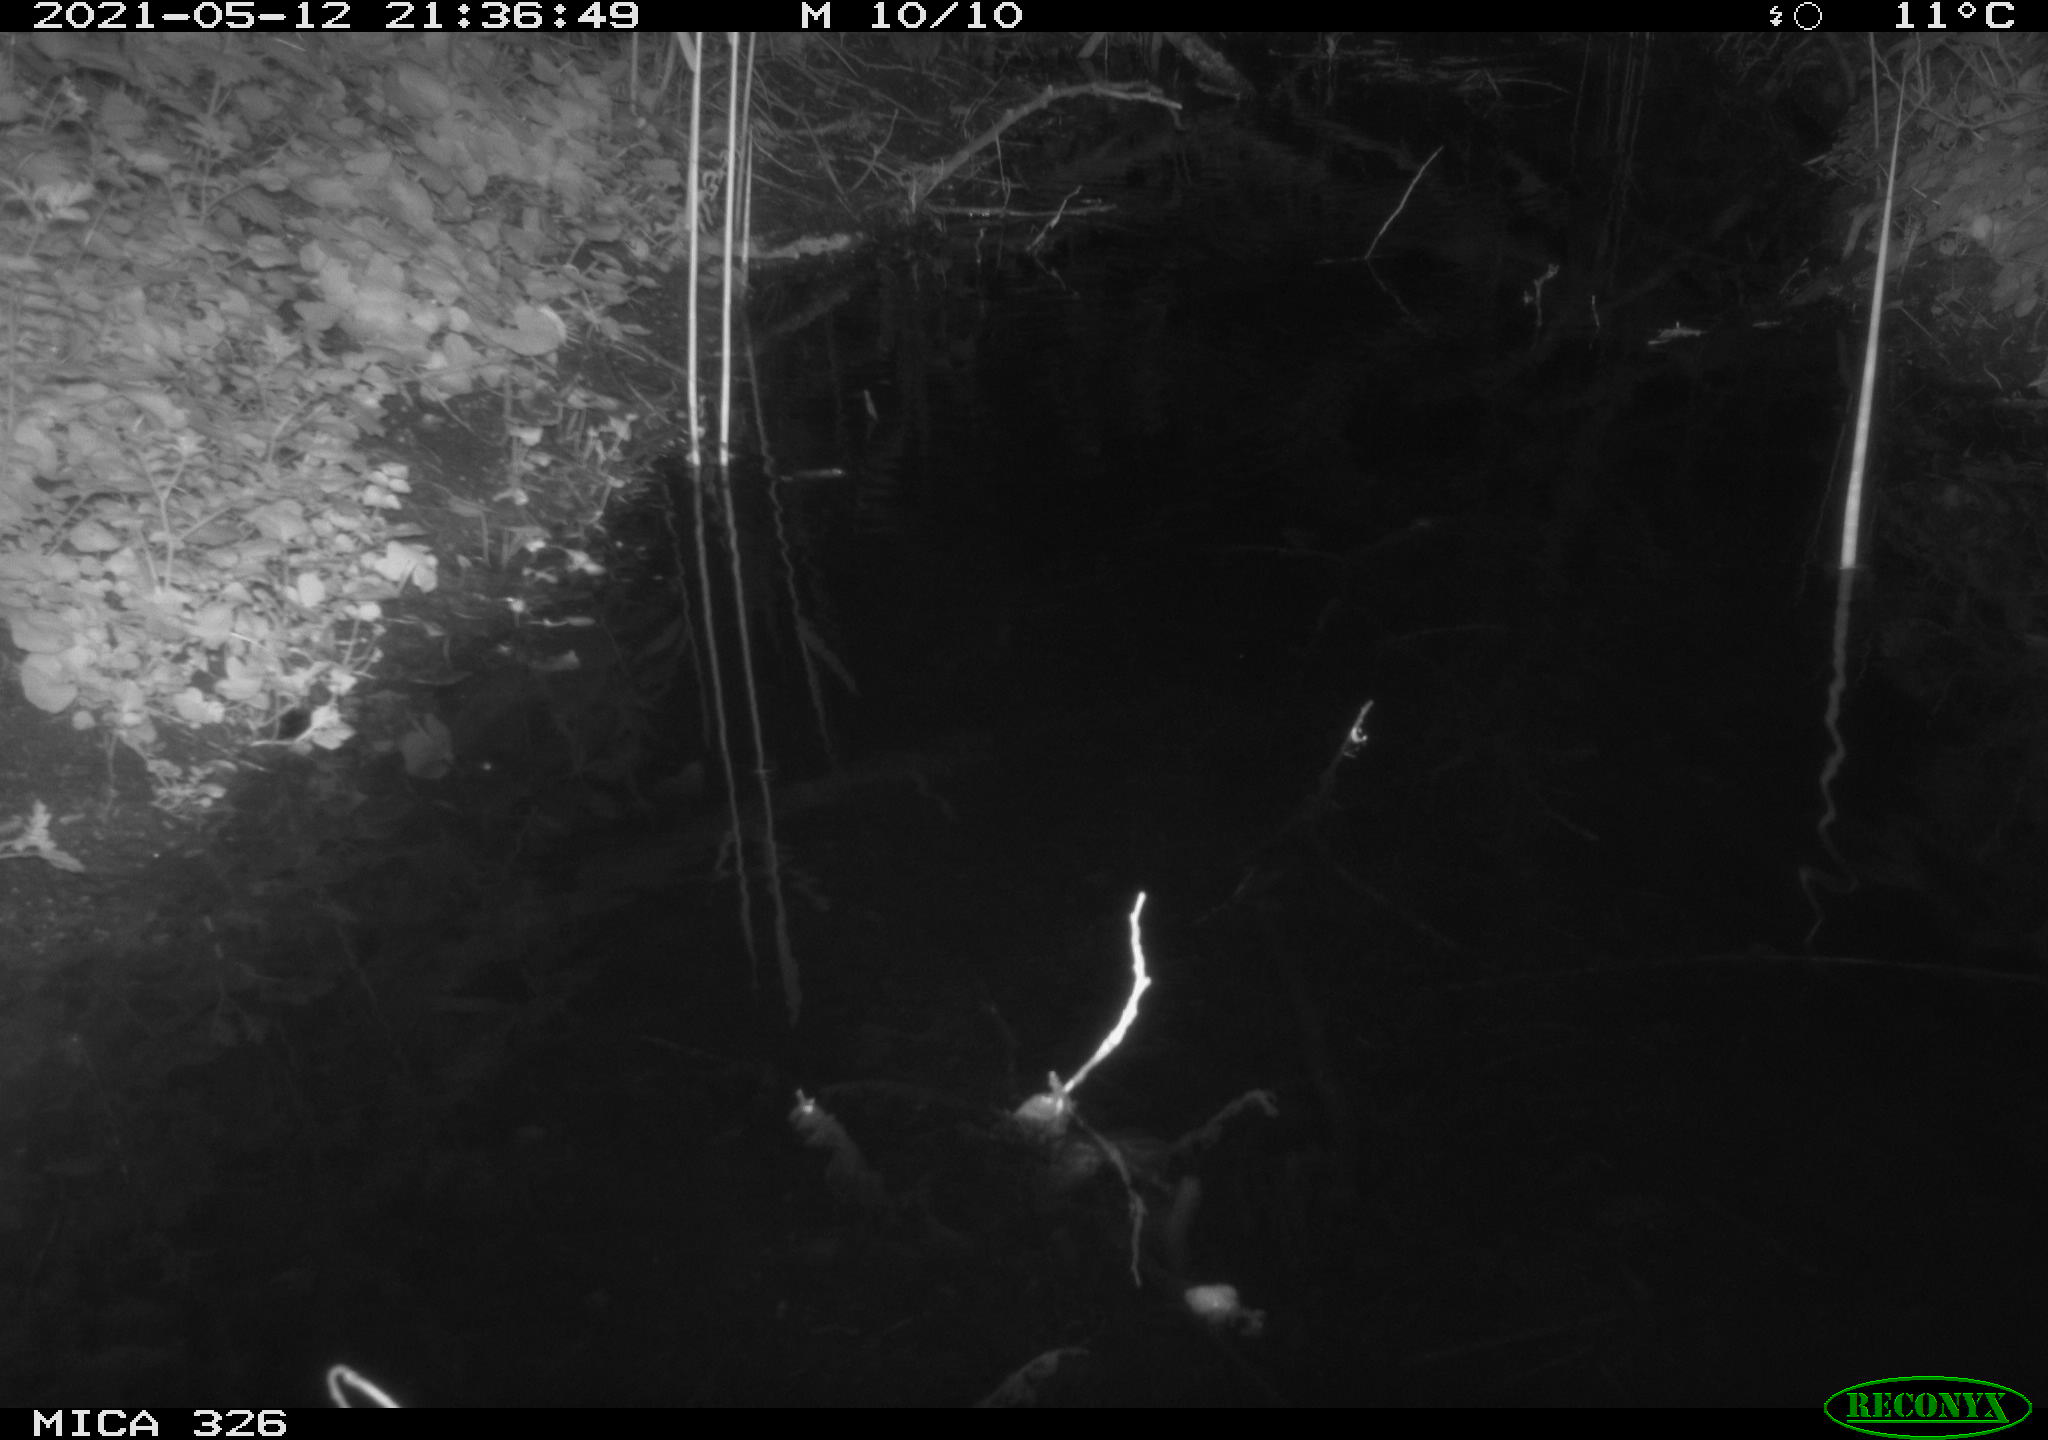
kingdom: Animalia
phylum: Chordata
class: Mammalia
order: Rodentia
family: Muridae
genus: Rattus
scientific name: Rattus norvegicus
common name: Brown rat
